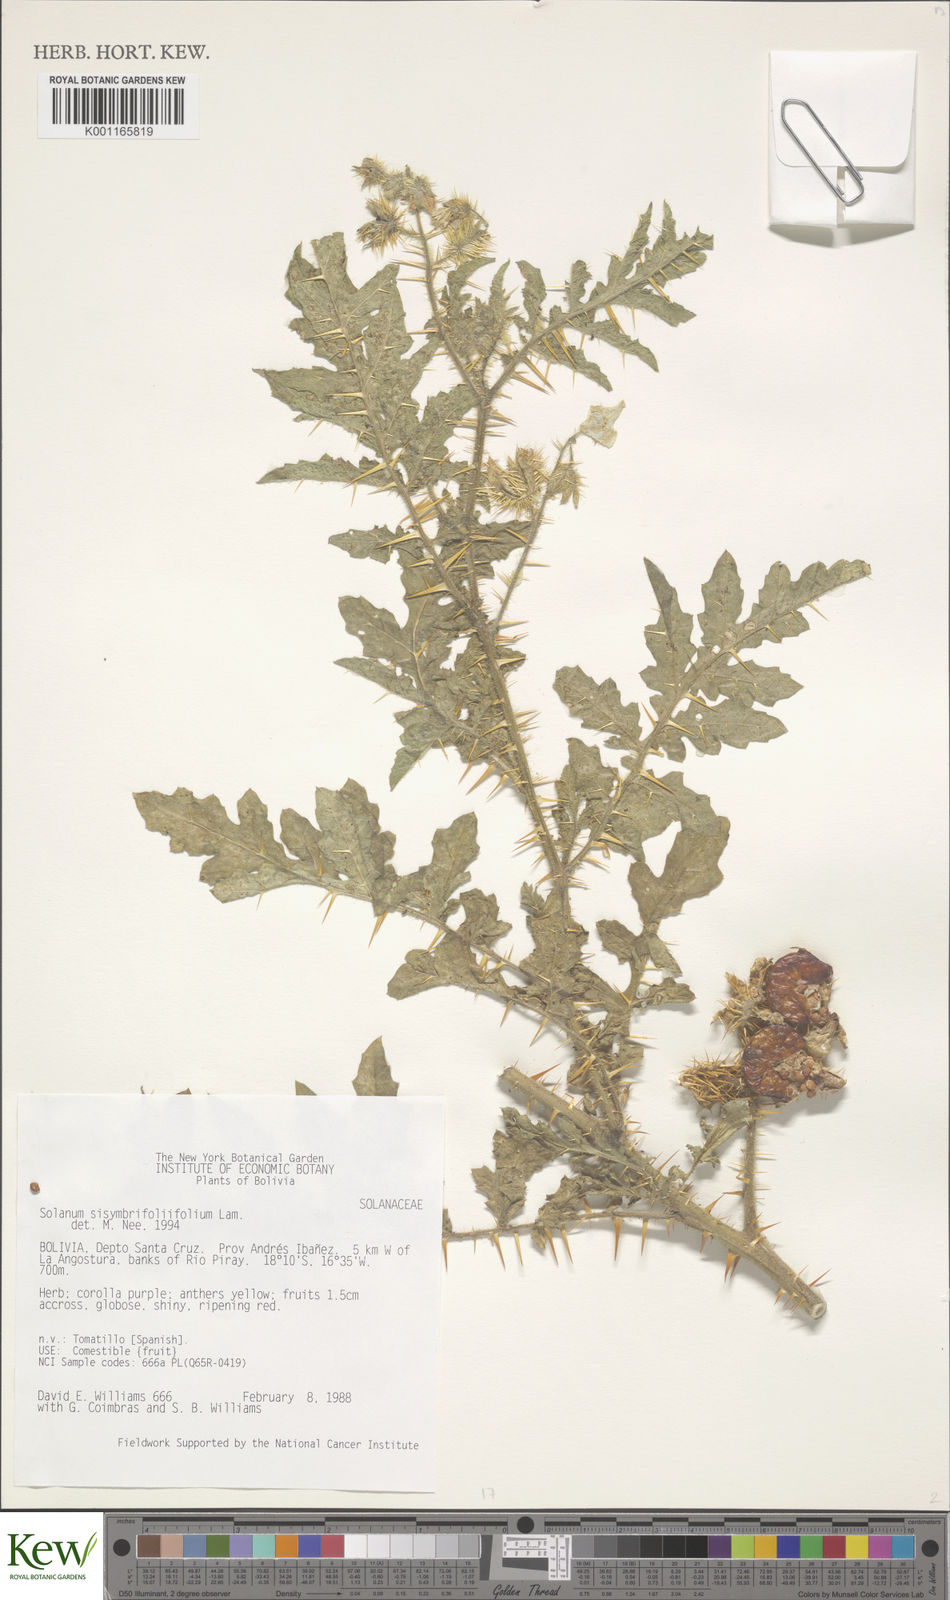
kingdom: Plantae
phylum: Tracheophyta
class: Magnoliopsida
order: Solanales
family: Solanaceae
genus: Solanum
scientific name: Solanum sisymbriifolium
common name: Red buffalo-bur
